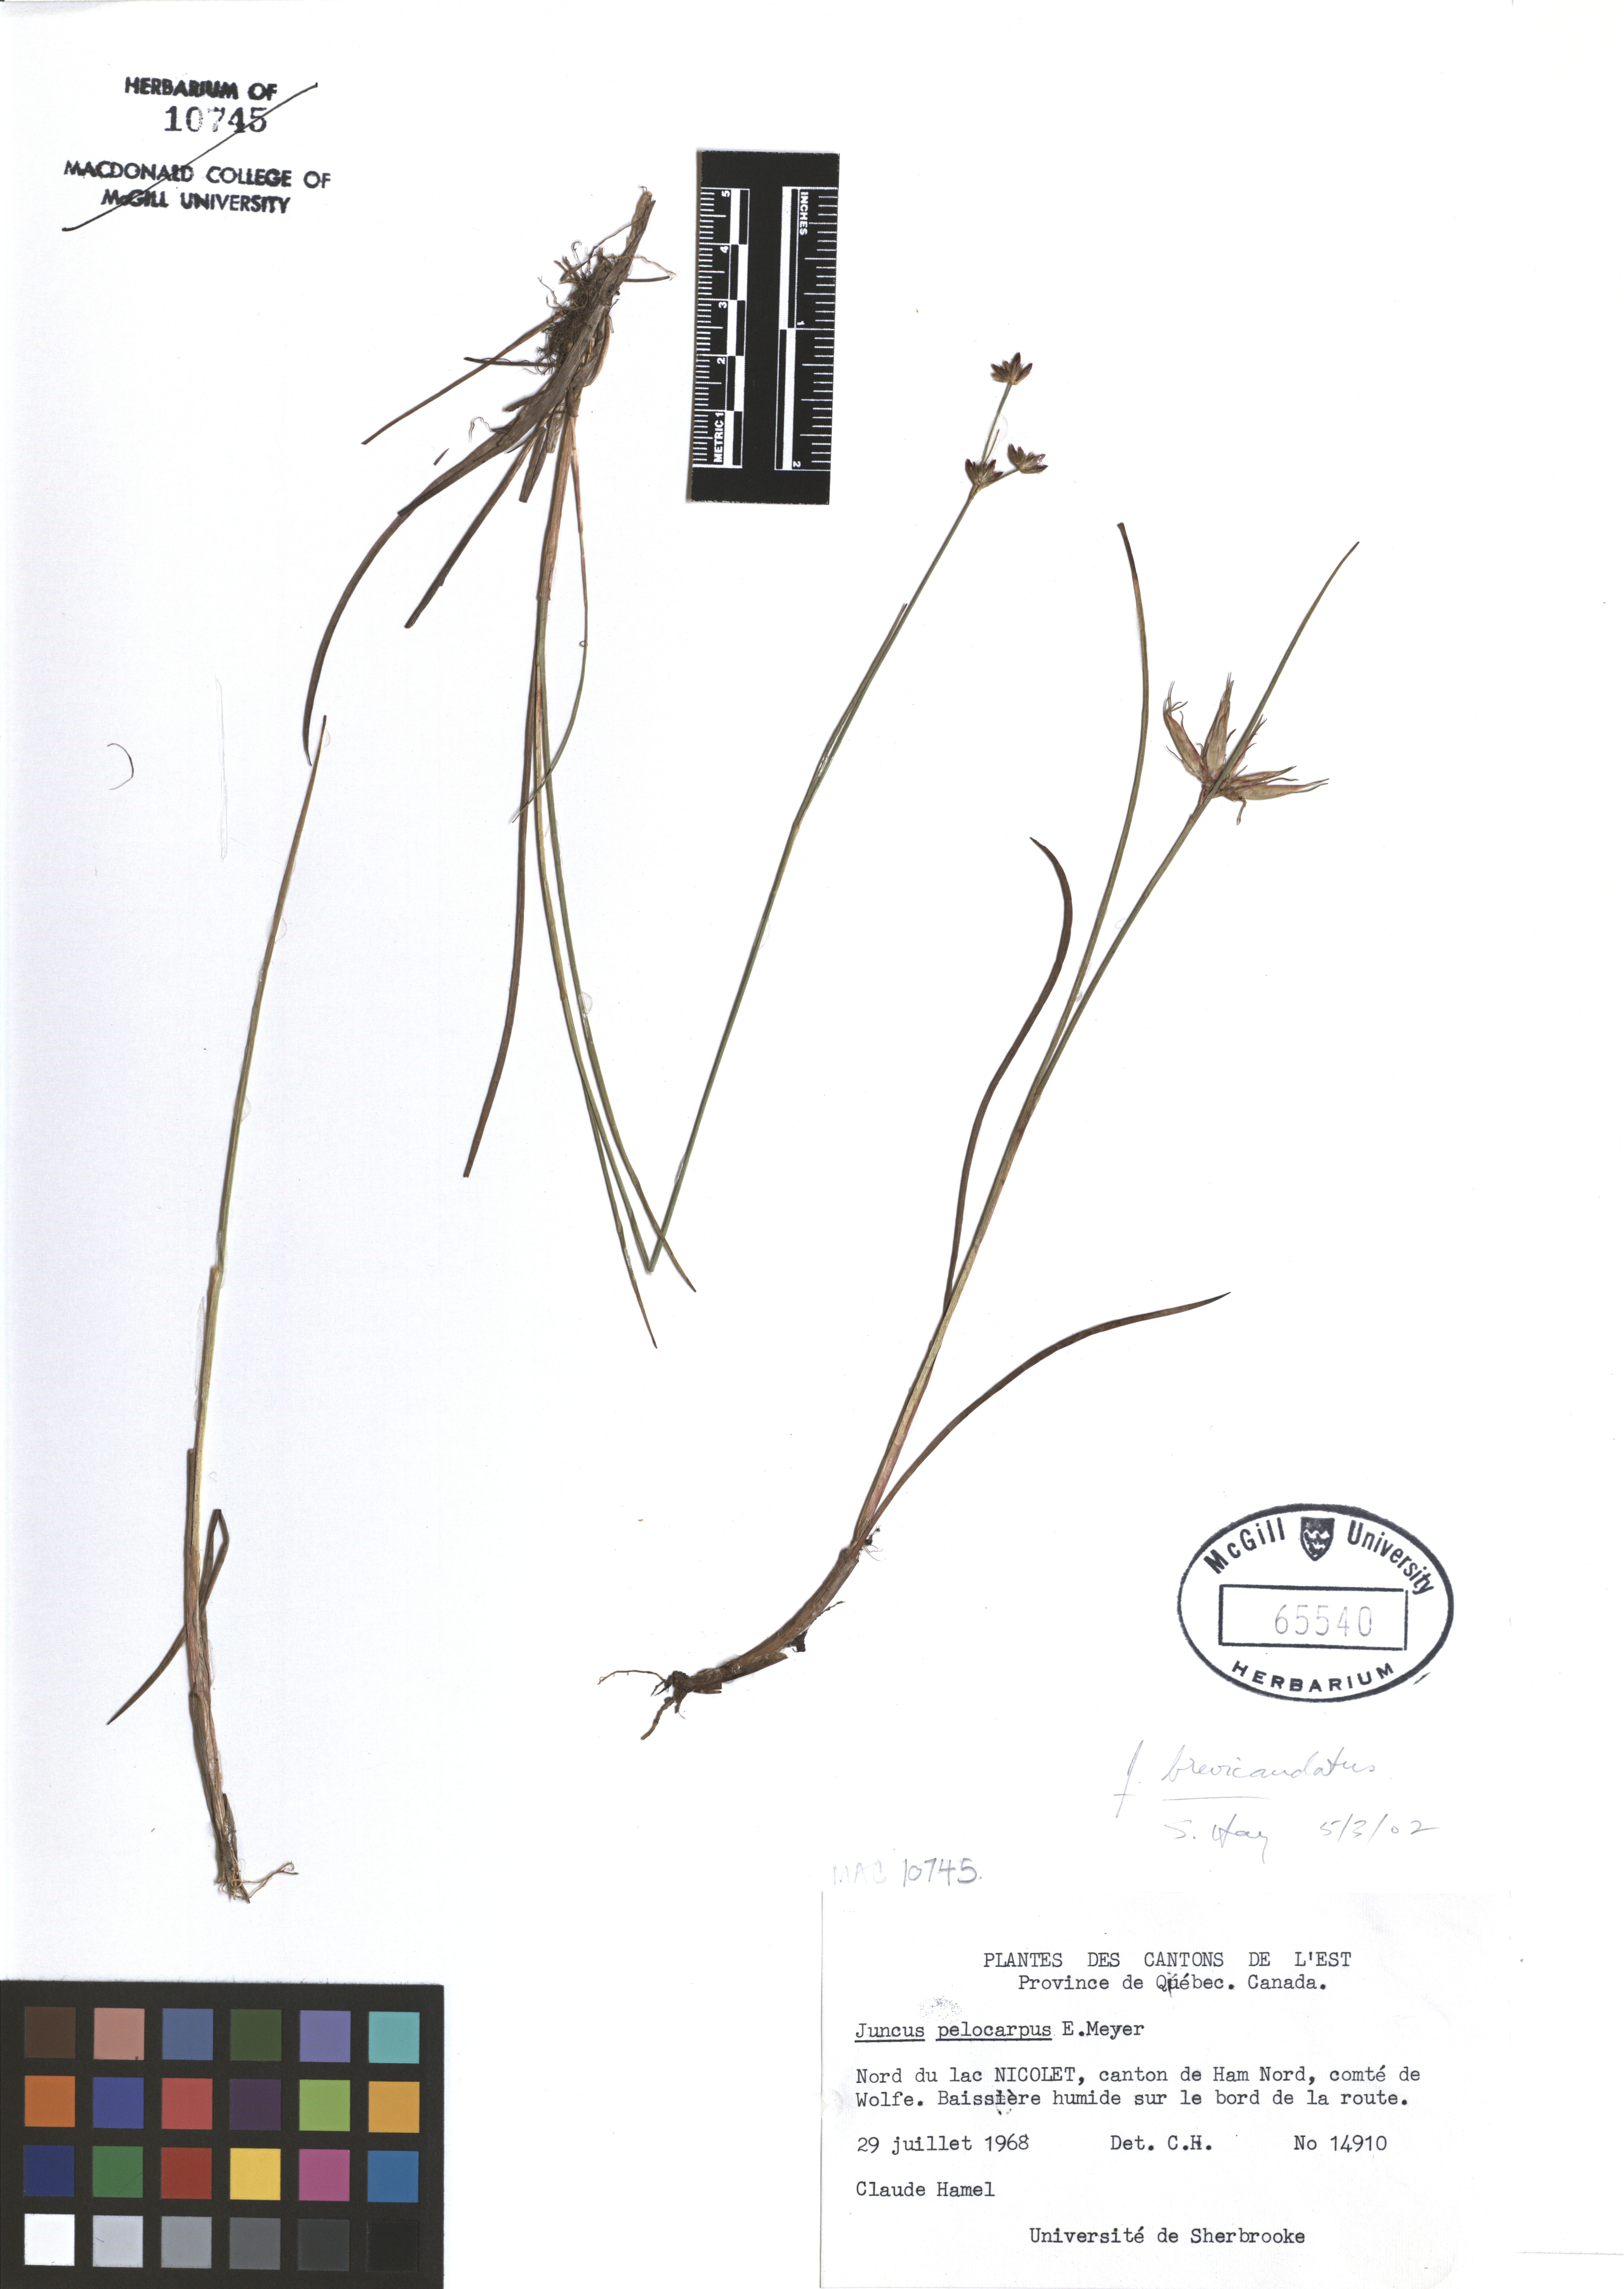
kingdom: Plantae
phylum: Tracheophyta
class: Liliopsida
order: Poales
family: Juncaceae
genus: Juncus
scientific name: Juncus brevicaudatus
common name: Narrow-panicle rush
